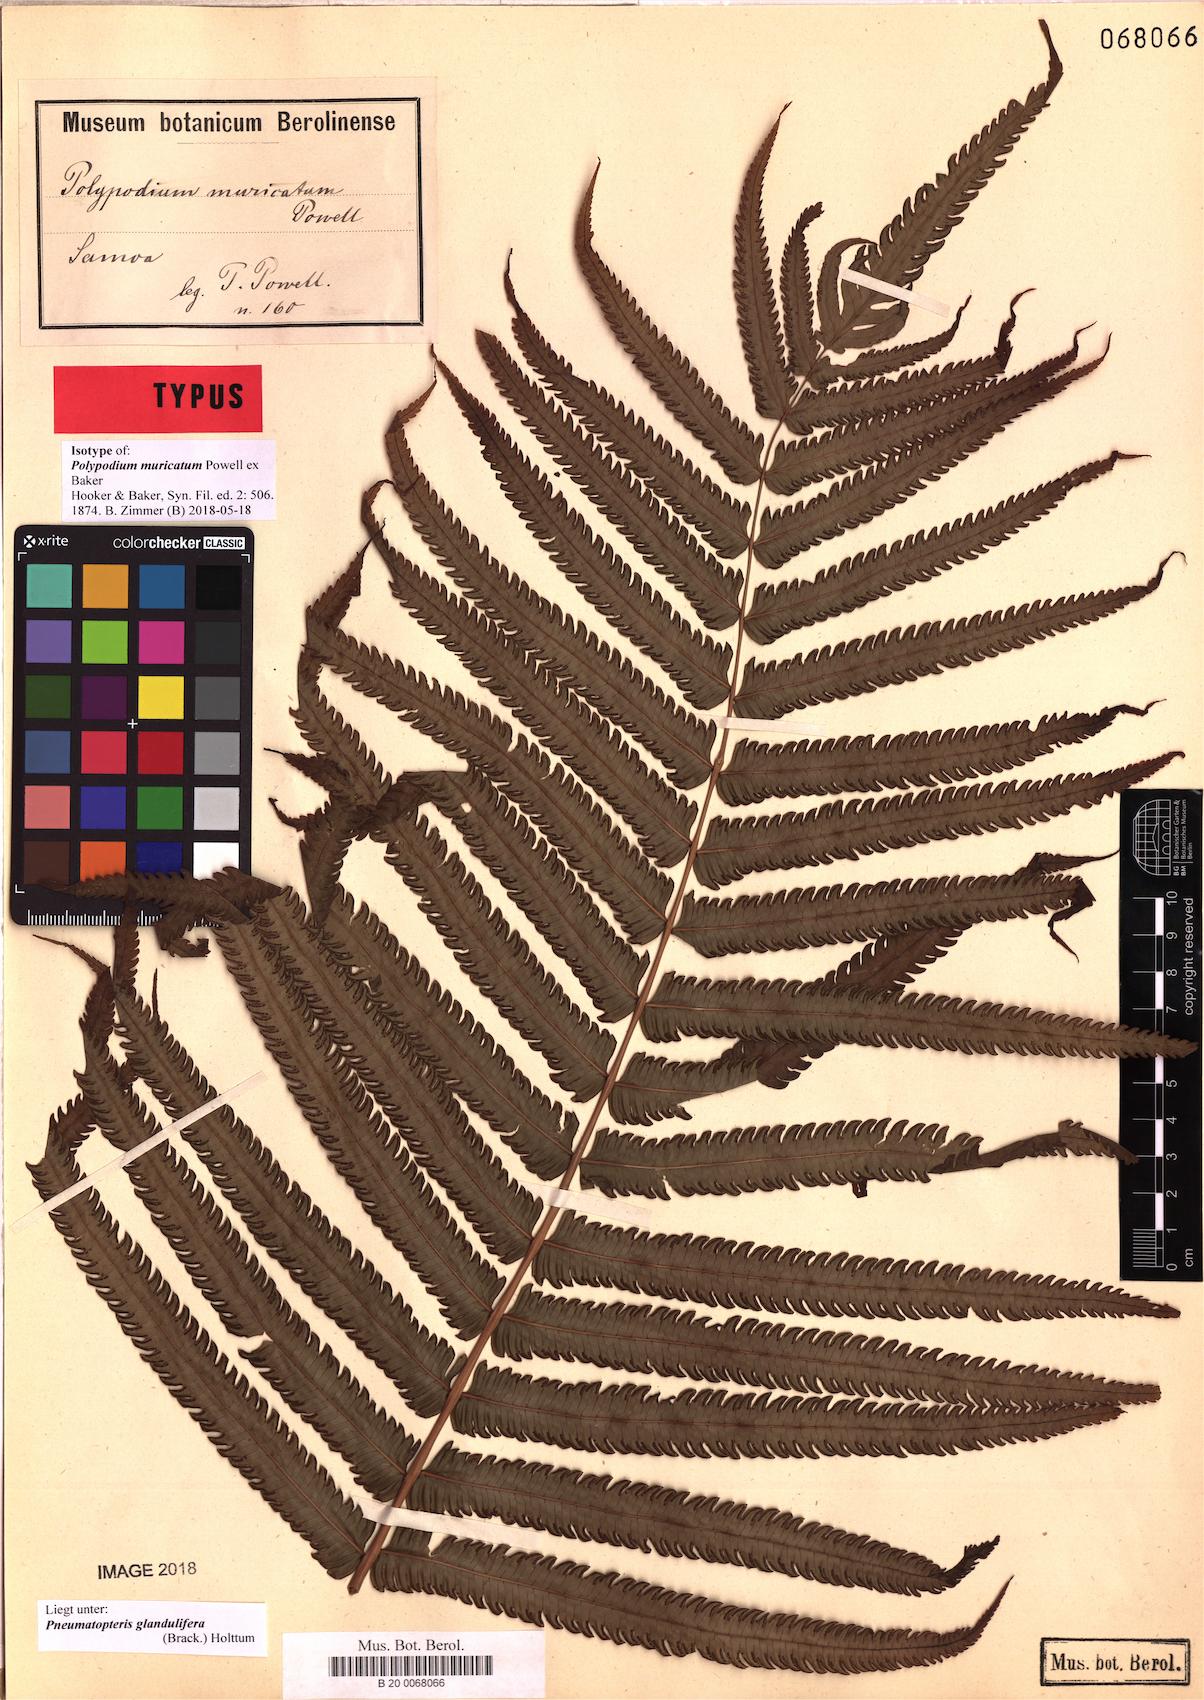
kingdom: Plantae
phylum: Tracheophyta
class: Polypodiopsida
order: Polypodiales
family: Thelypteridaceae
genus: Pneumatopteris
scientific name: Pneumatopteris glandulifera
